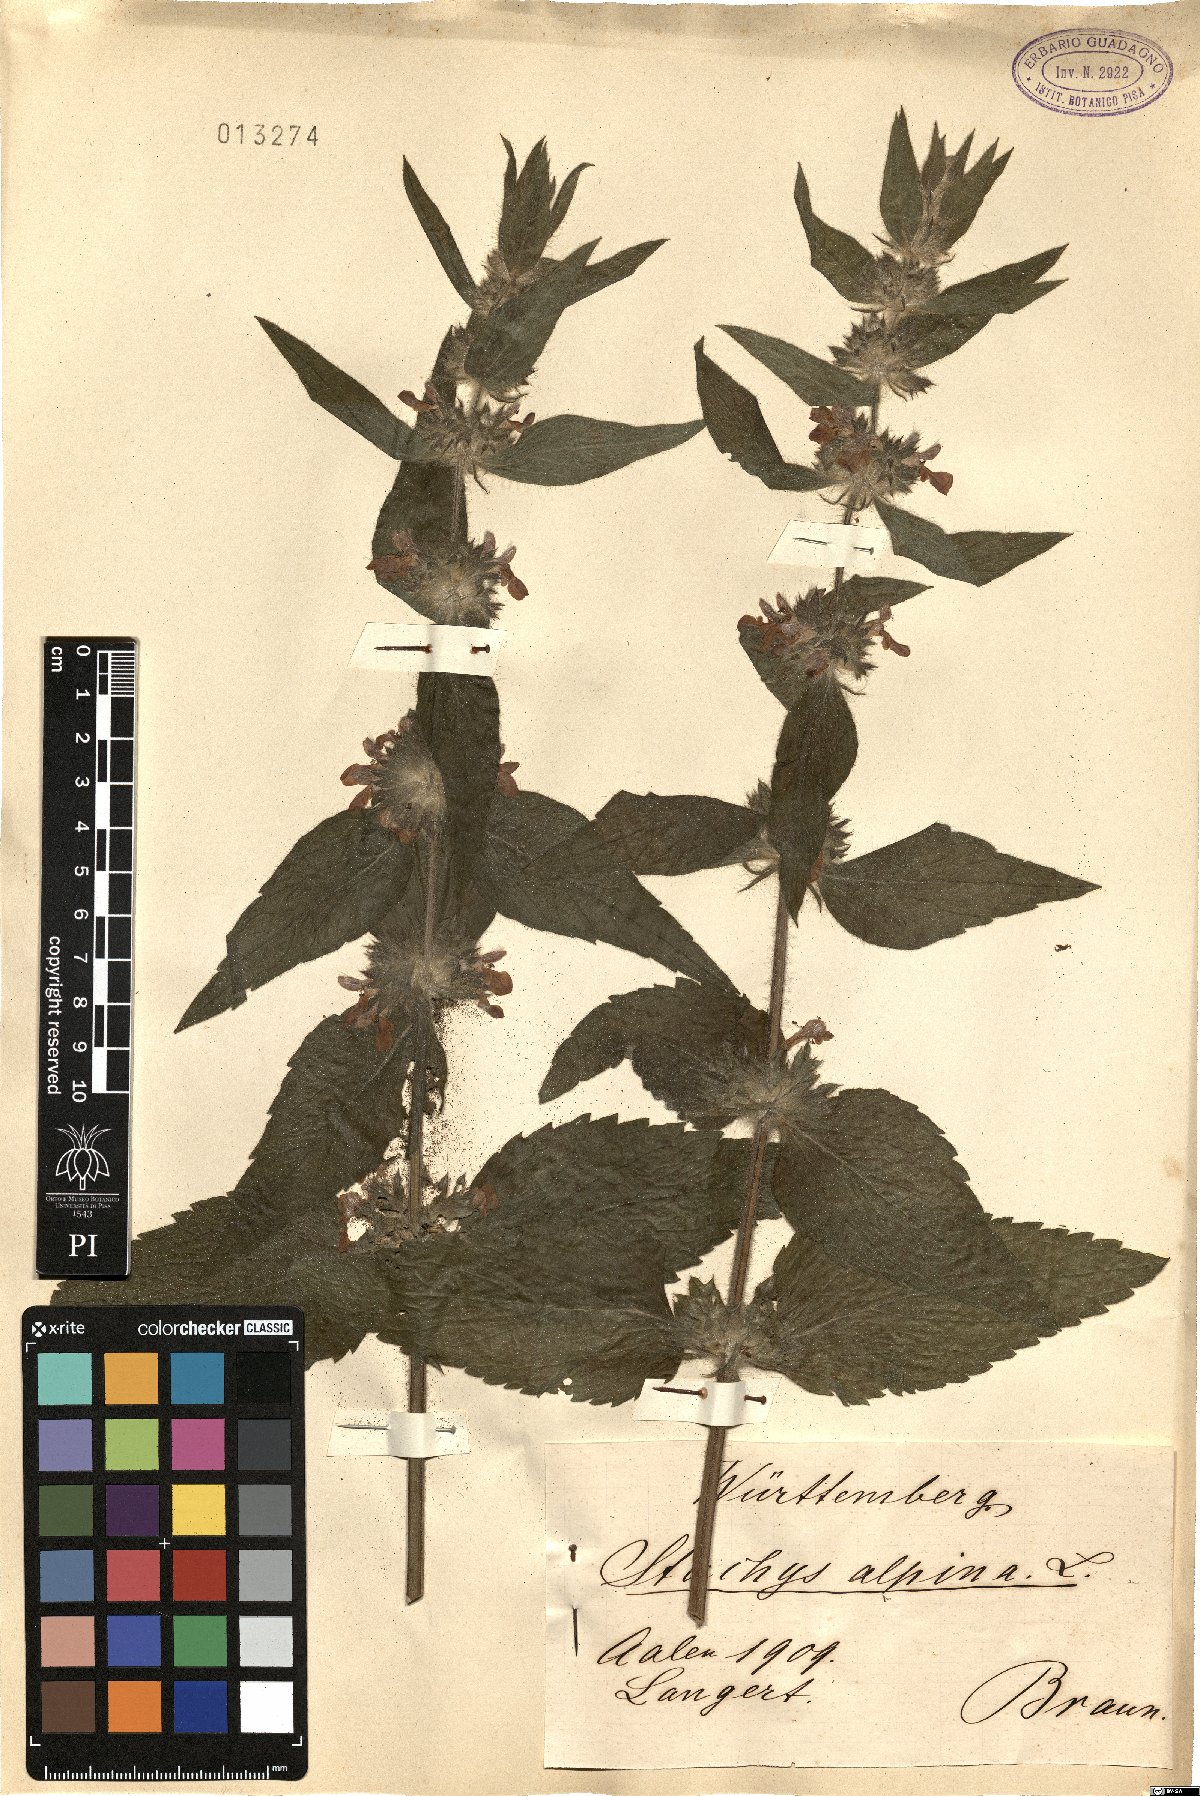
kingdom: Plantae
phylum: Tracheophyta
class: Magnoliopsida
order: Lamiales
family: Lamiaceae
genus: Stachys
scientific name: Stachys alpina
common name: Limestone woundwort
